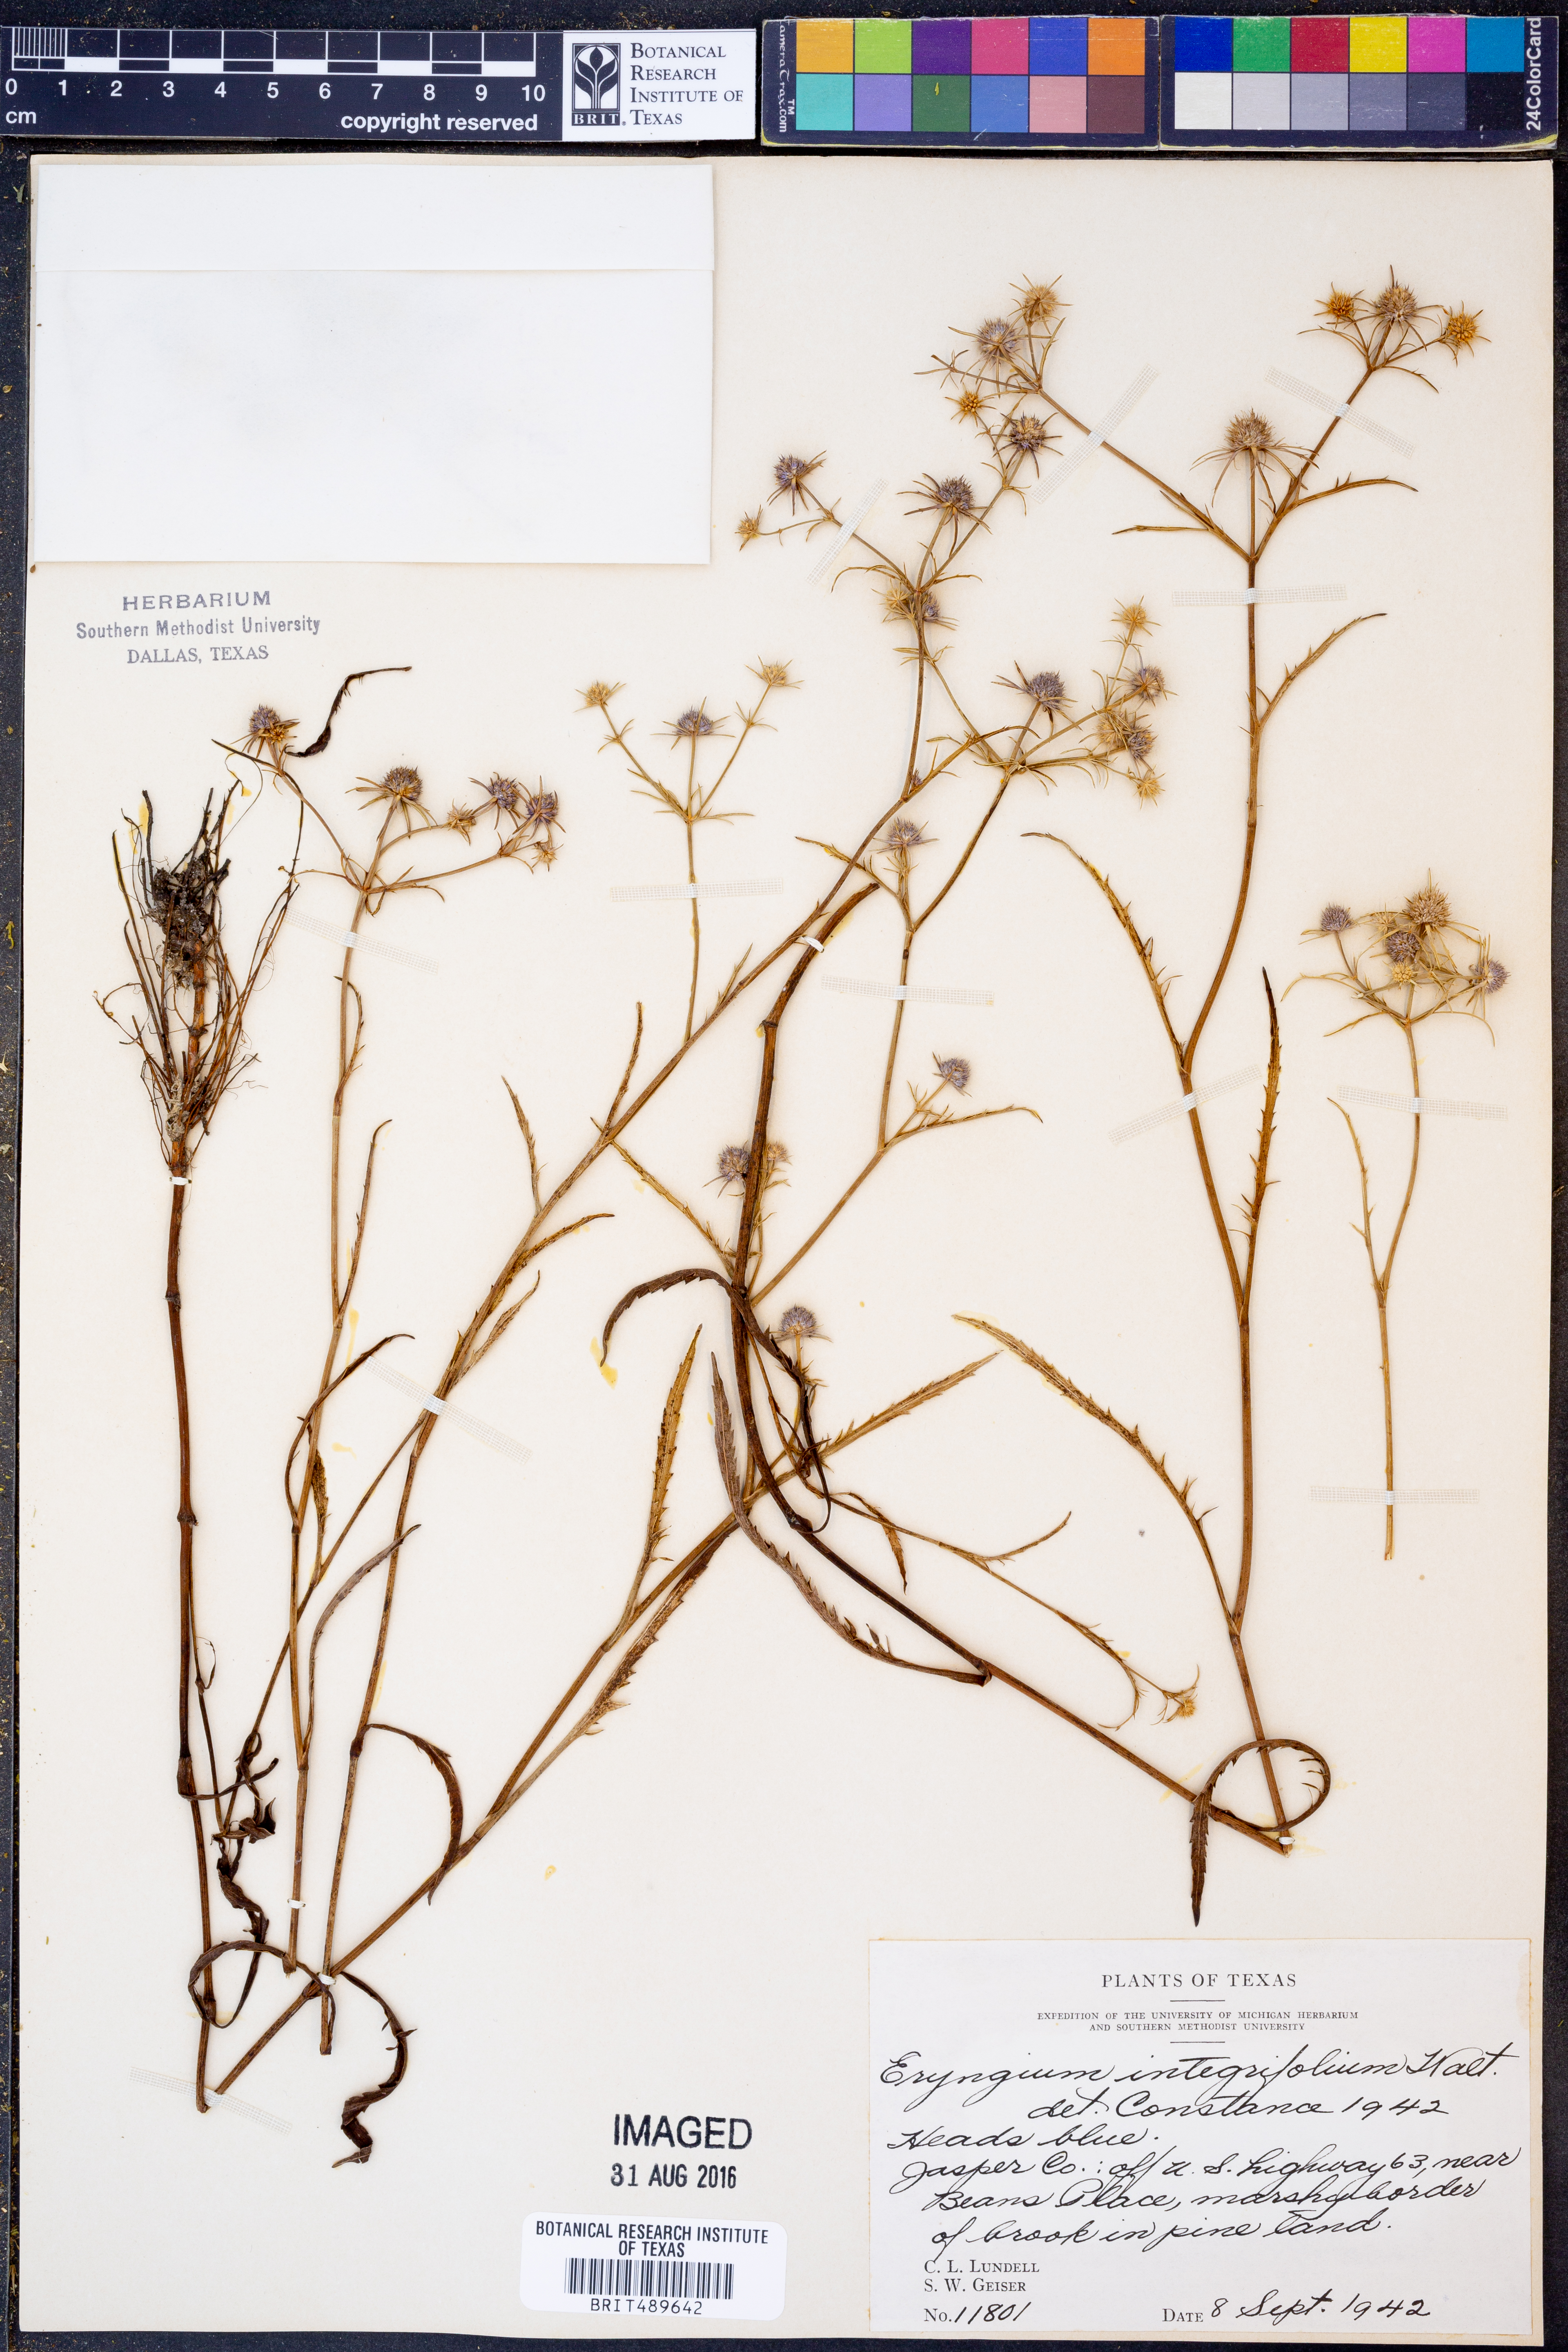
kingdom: Plantae
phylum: Tracheophyta
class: Magnoliopsida
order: Apiales
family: Apiaceae
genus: Eryngium
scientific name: Eryngium integrifolium
